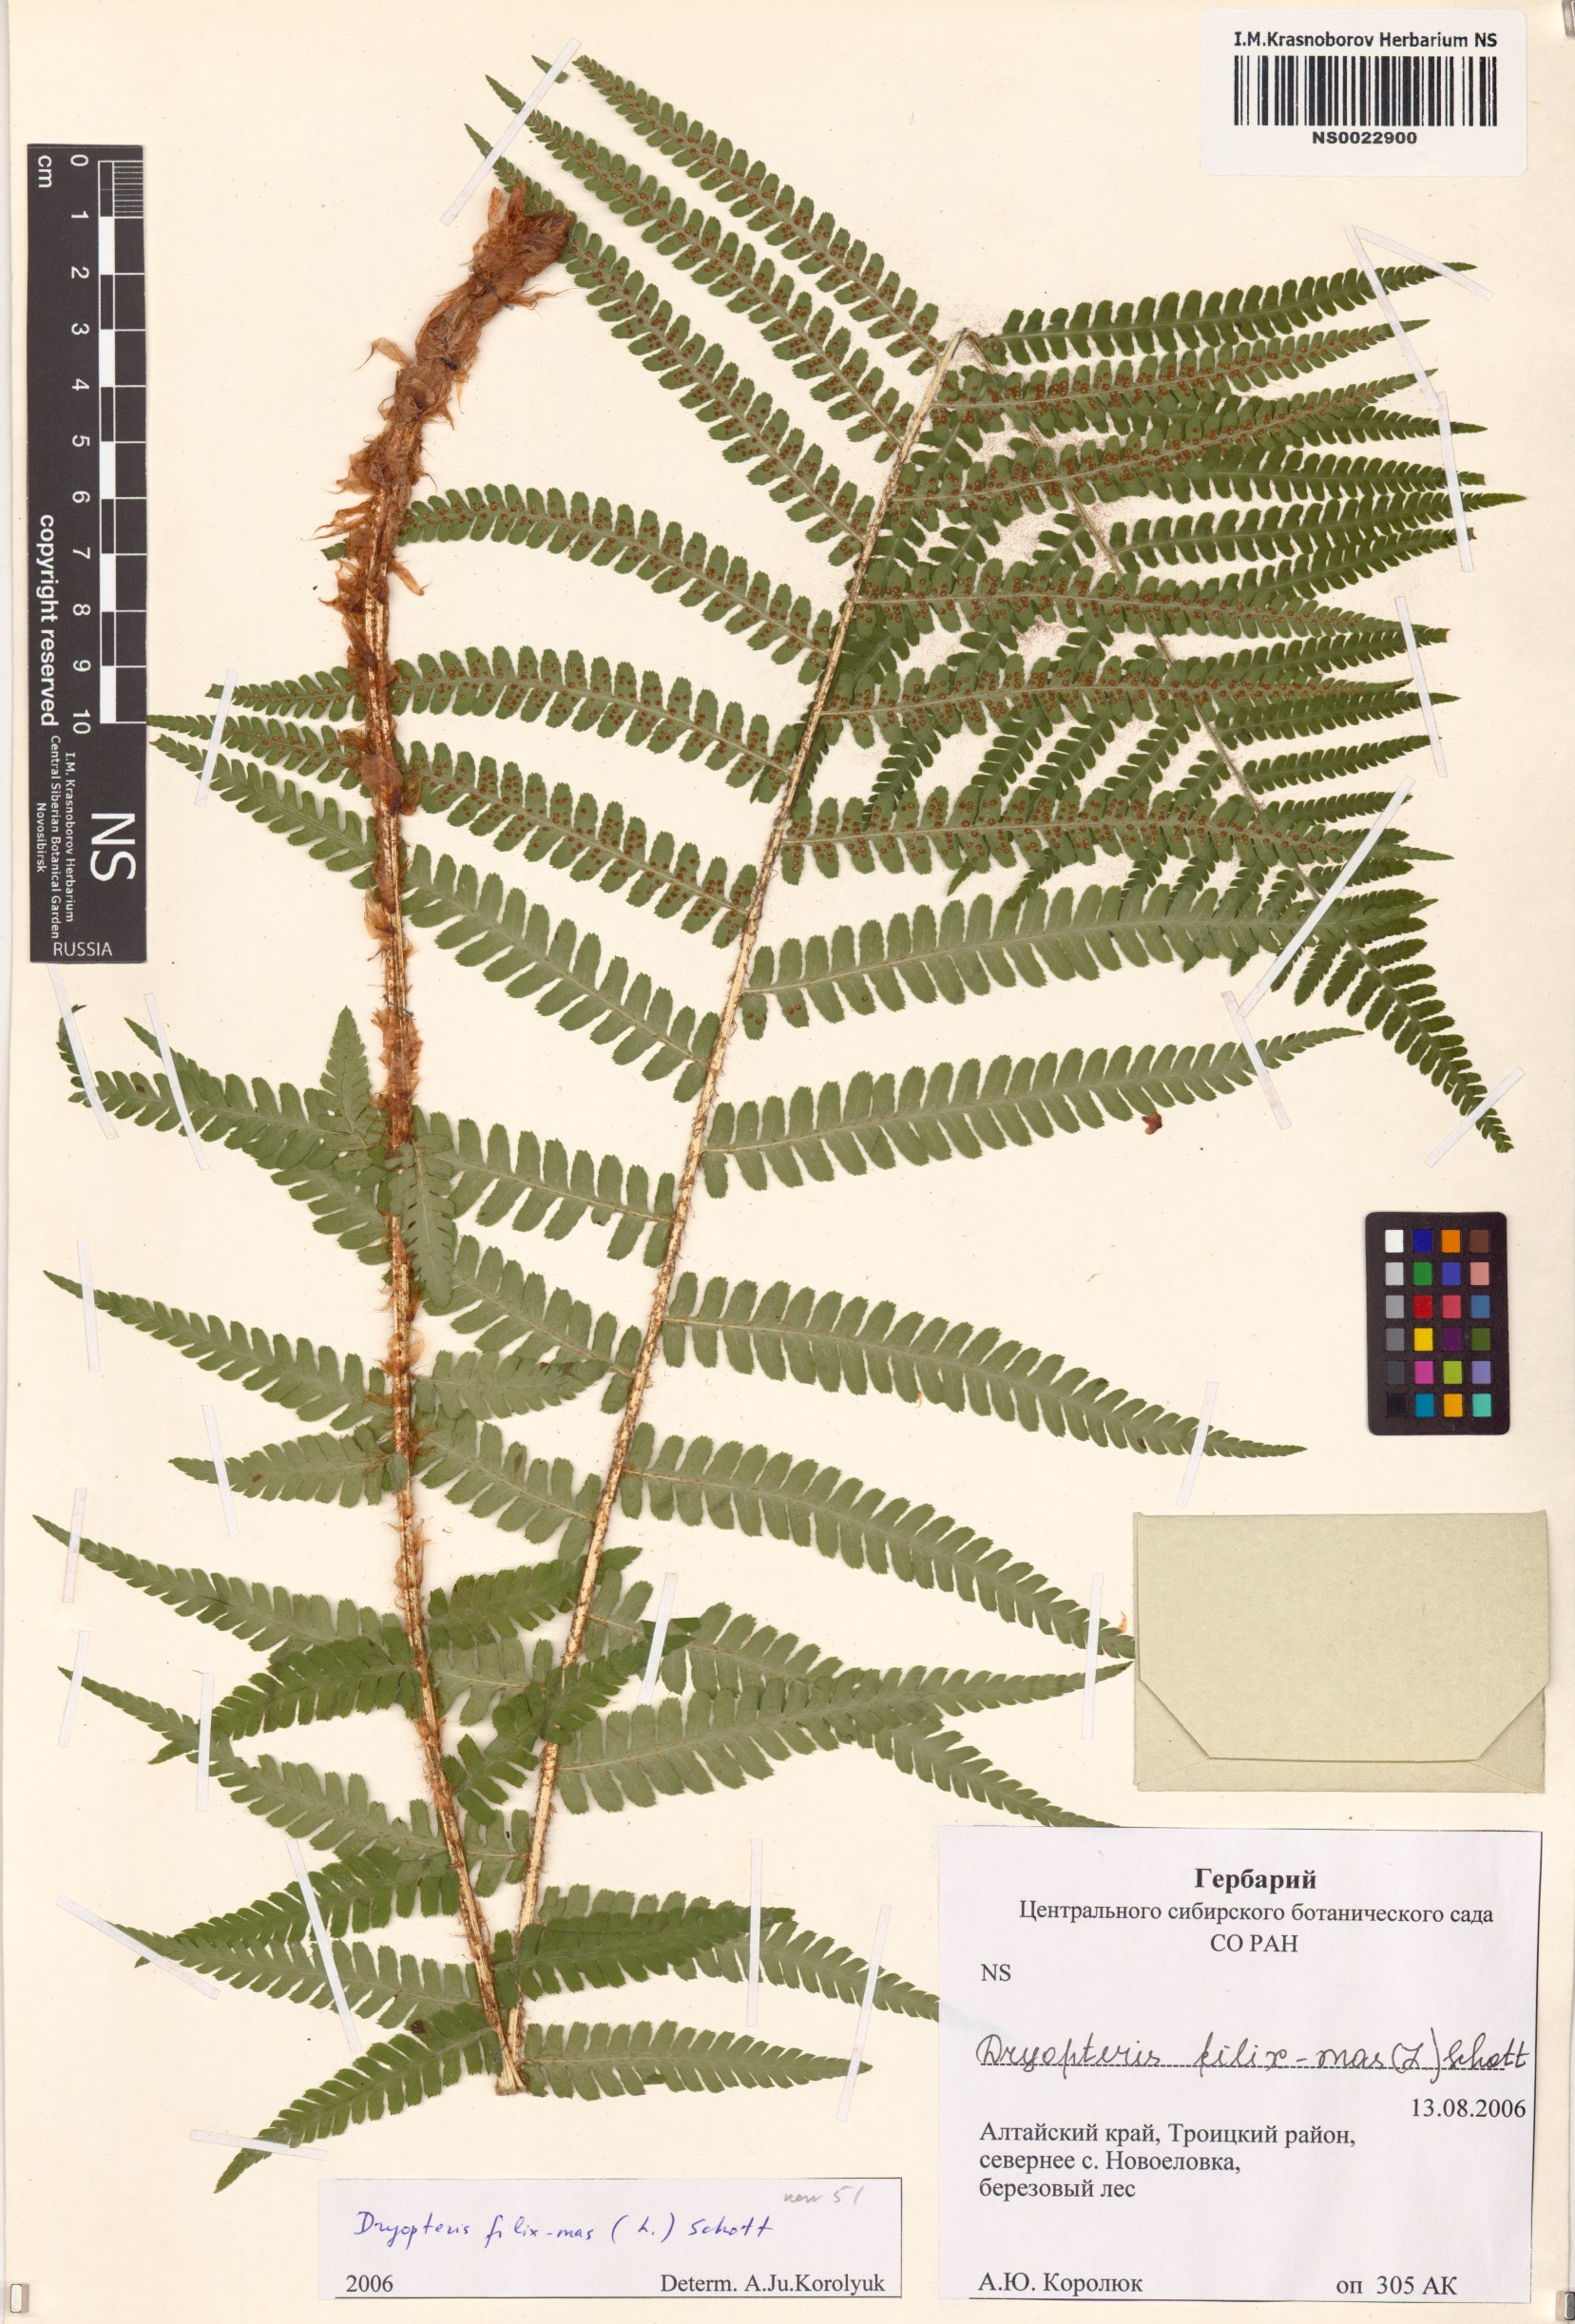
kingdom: Plantae
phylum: Tracheophyta
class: Polypodiopsida
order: Polypodiales
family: Dryopteridaceae
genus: Dryopteris
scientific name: Dryopteris filix-mas
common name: Male fern
